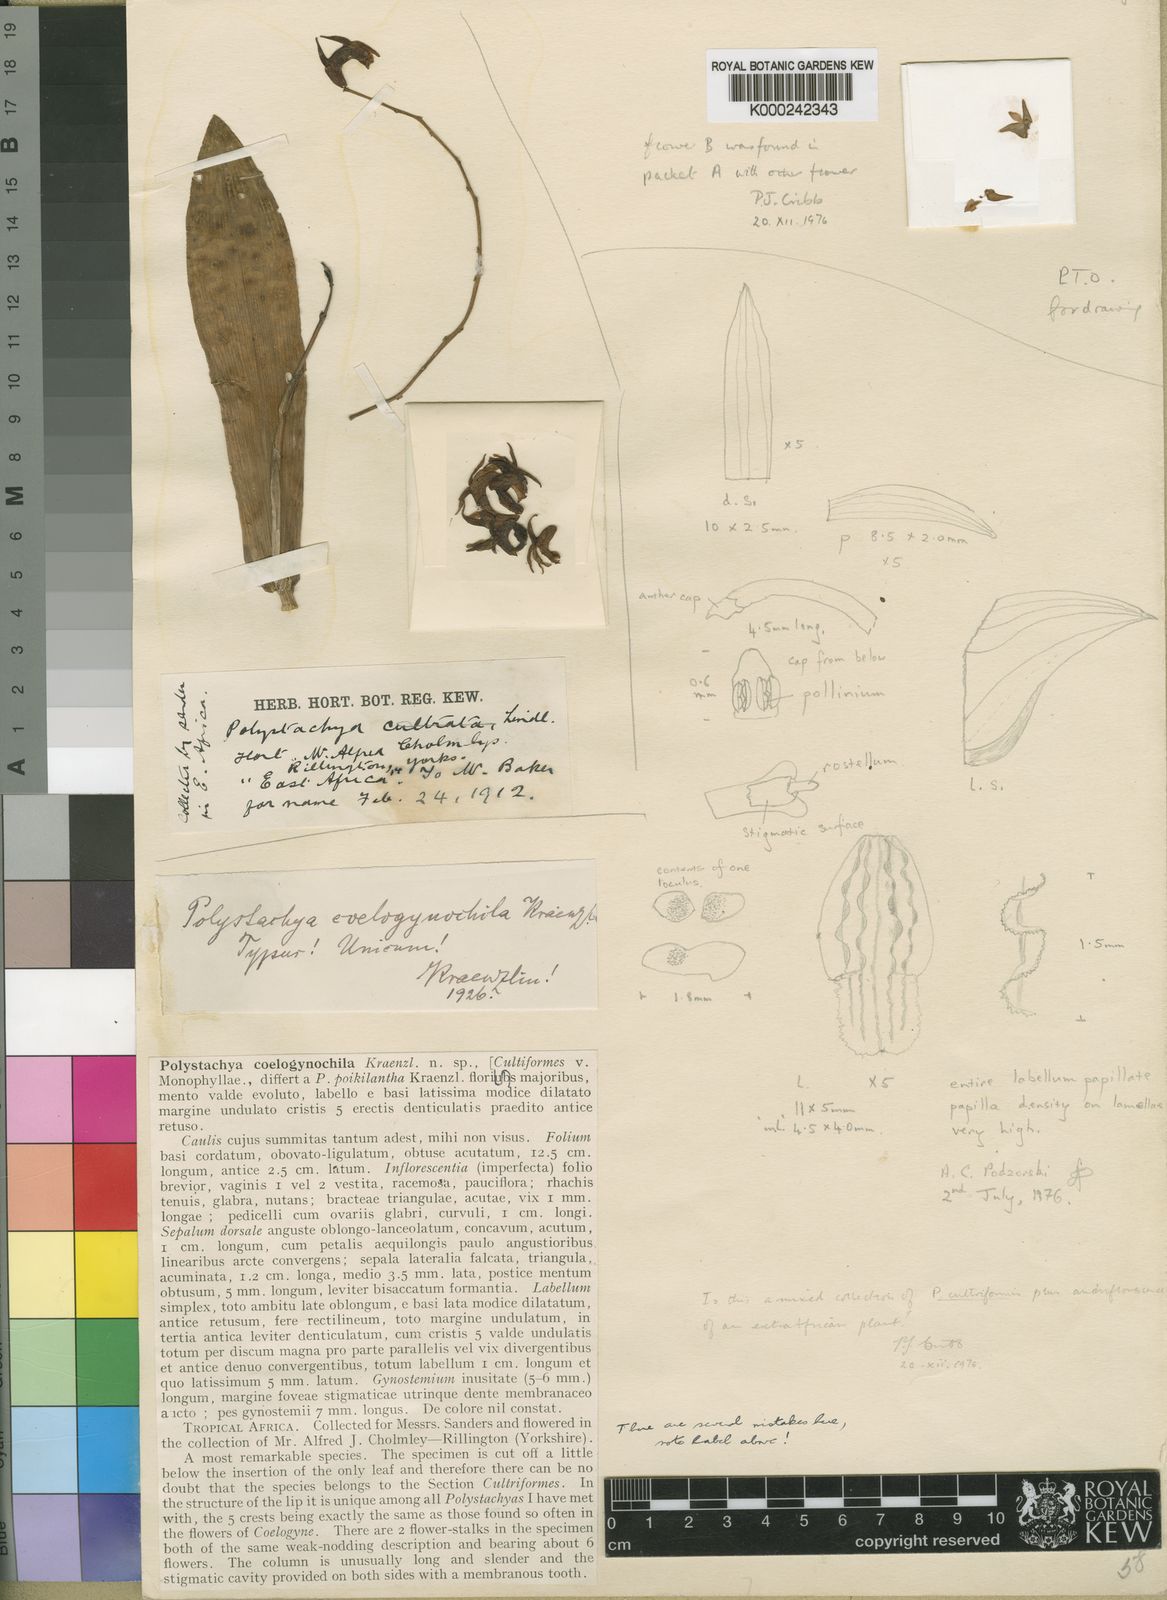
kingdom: Plantae
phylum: Tracheophyta
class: Liliopsida
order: Asparagales
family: Orchidaceae
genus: Polystachya
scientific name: Polystachya cultriformis
